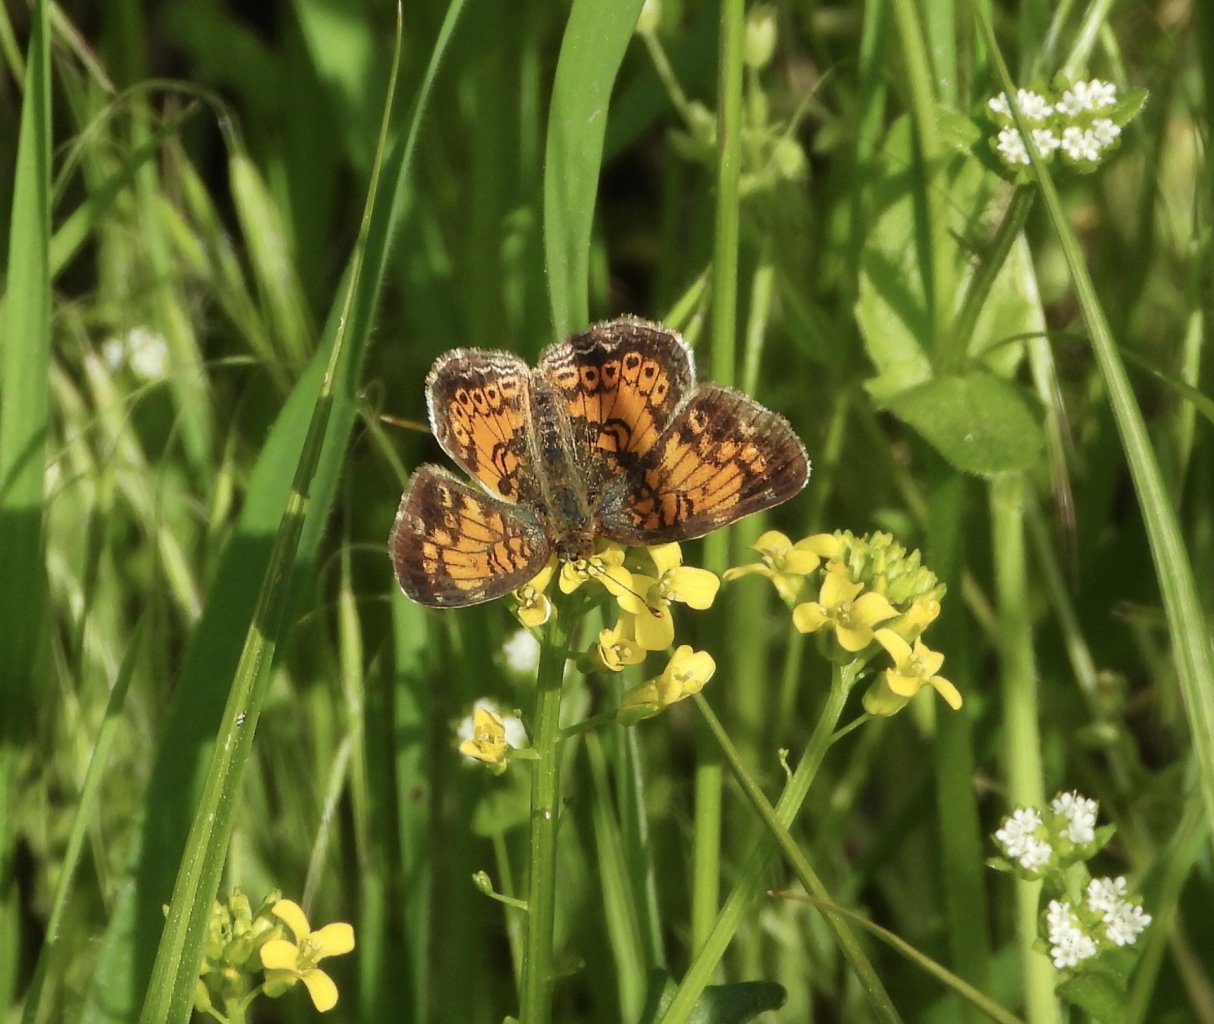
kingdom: Animalia
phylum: Arthropoda
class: Insecta
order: Lepidoptera
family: Nymphalidae
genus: Phyciodes
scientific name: Phyciodes tharos
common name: Pearl Crescent
